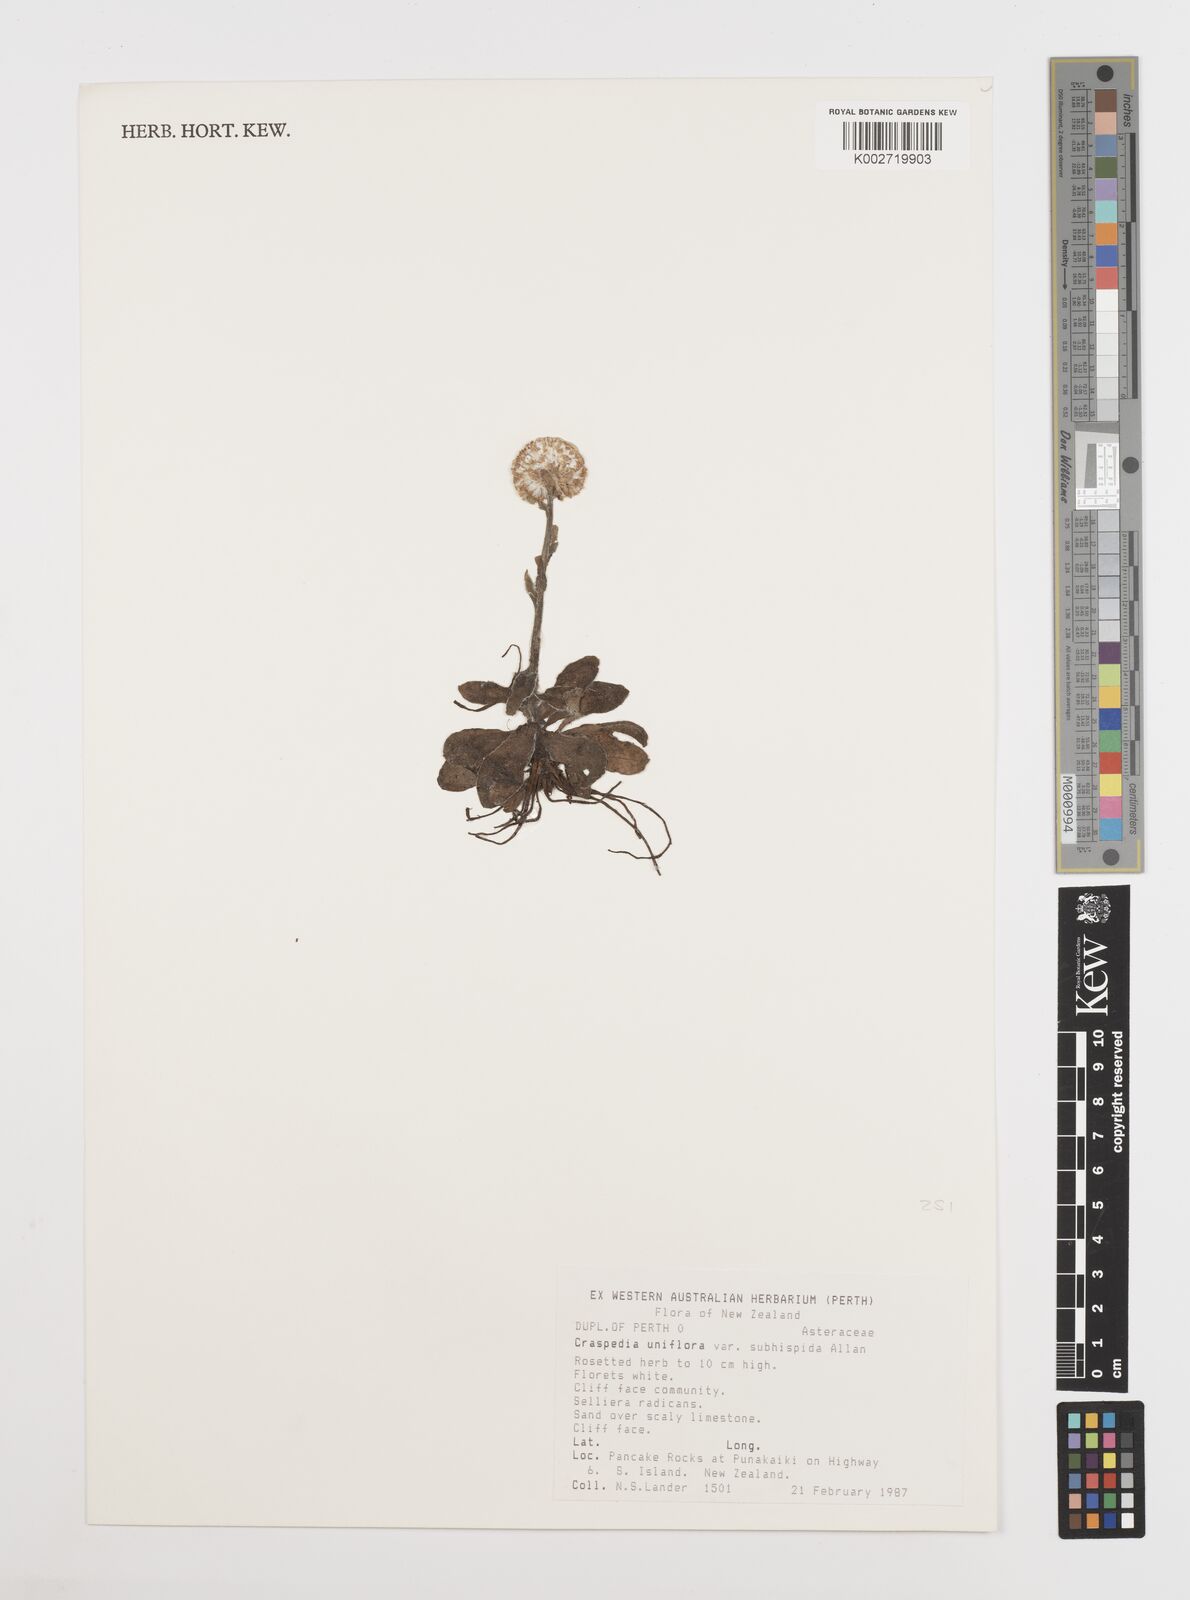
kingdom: Plantae
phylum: Tracheophyta
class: Magnoliopsida
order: Asterales
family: Asteraceae
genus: Craspedia
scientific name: Craspedia variabilis
